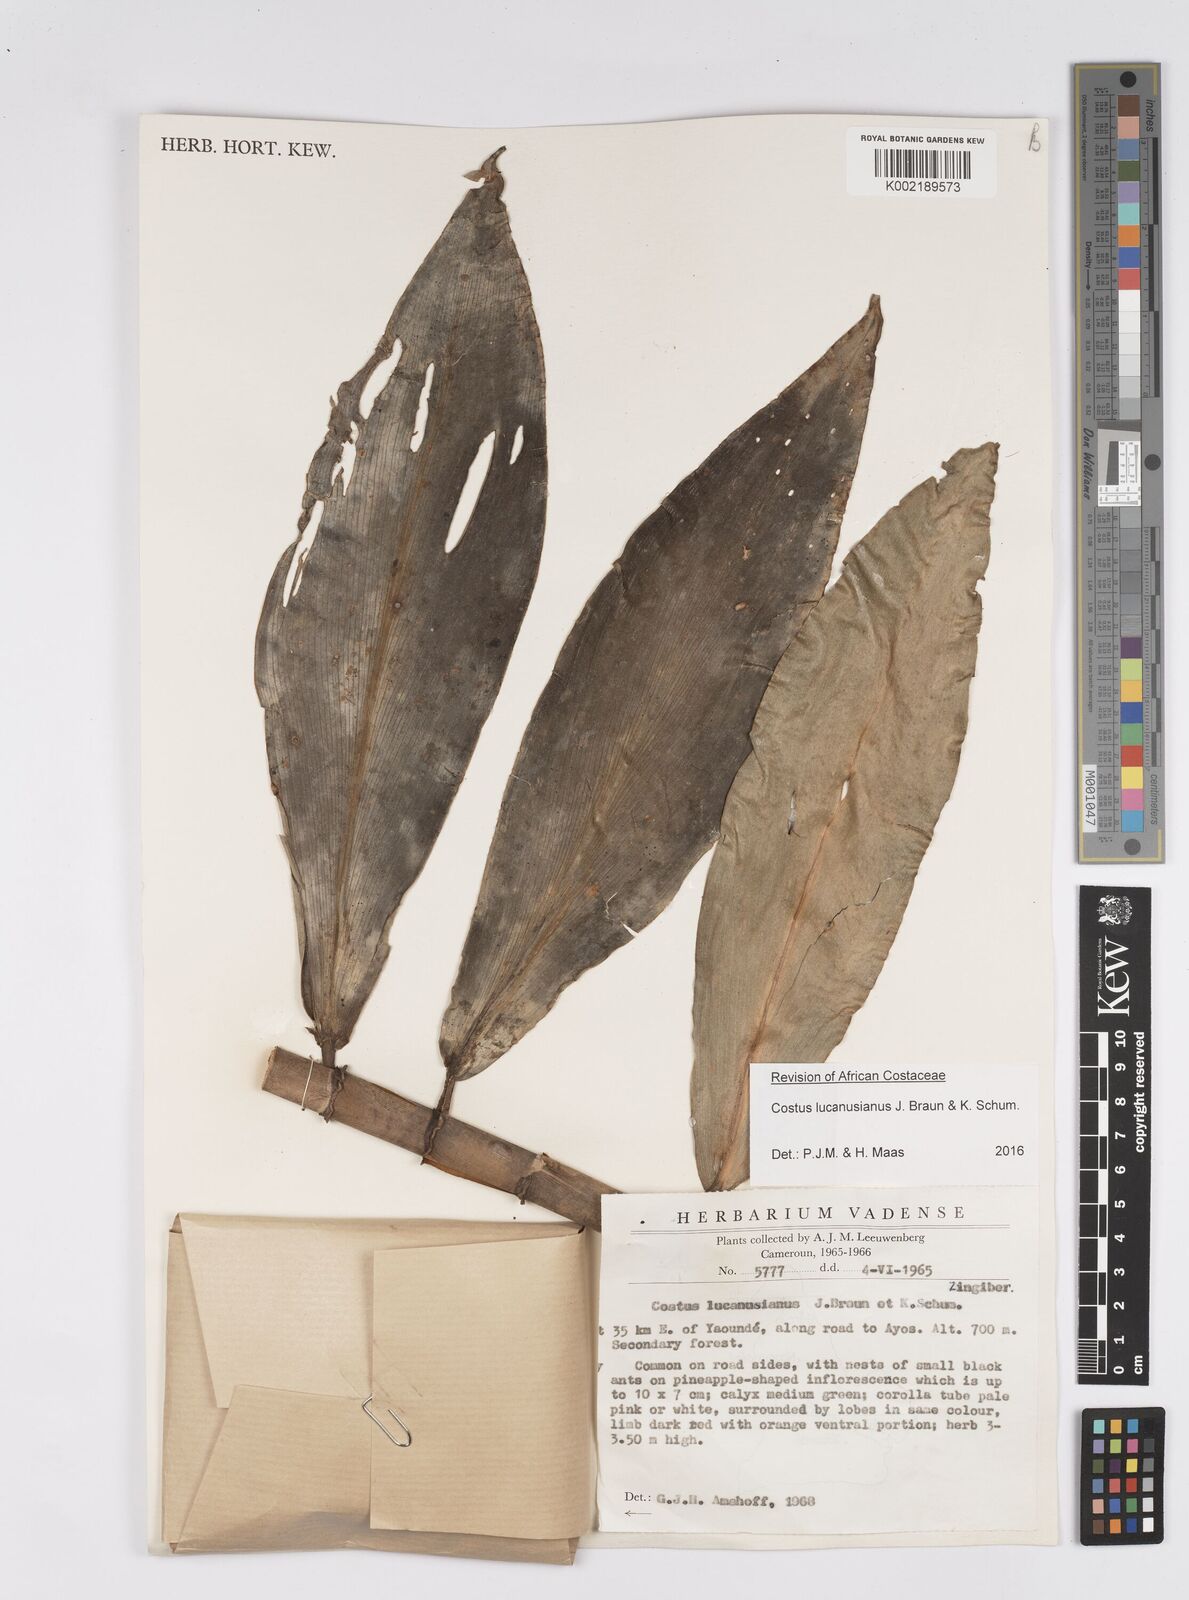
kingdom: Plantae
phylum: Tracheophyta
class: Liliopsida
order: Zingiberales
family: Costaceae
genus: Costus
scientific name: Costus lucanusianus
